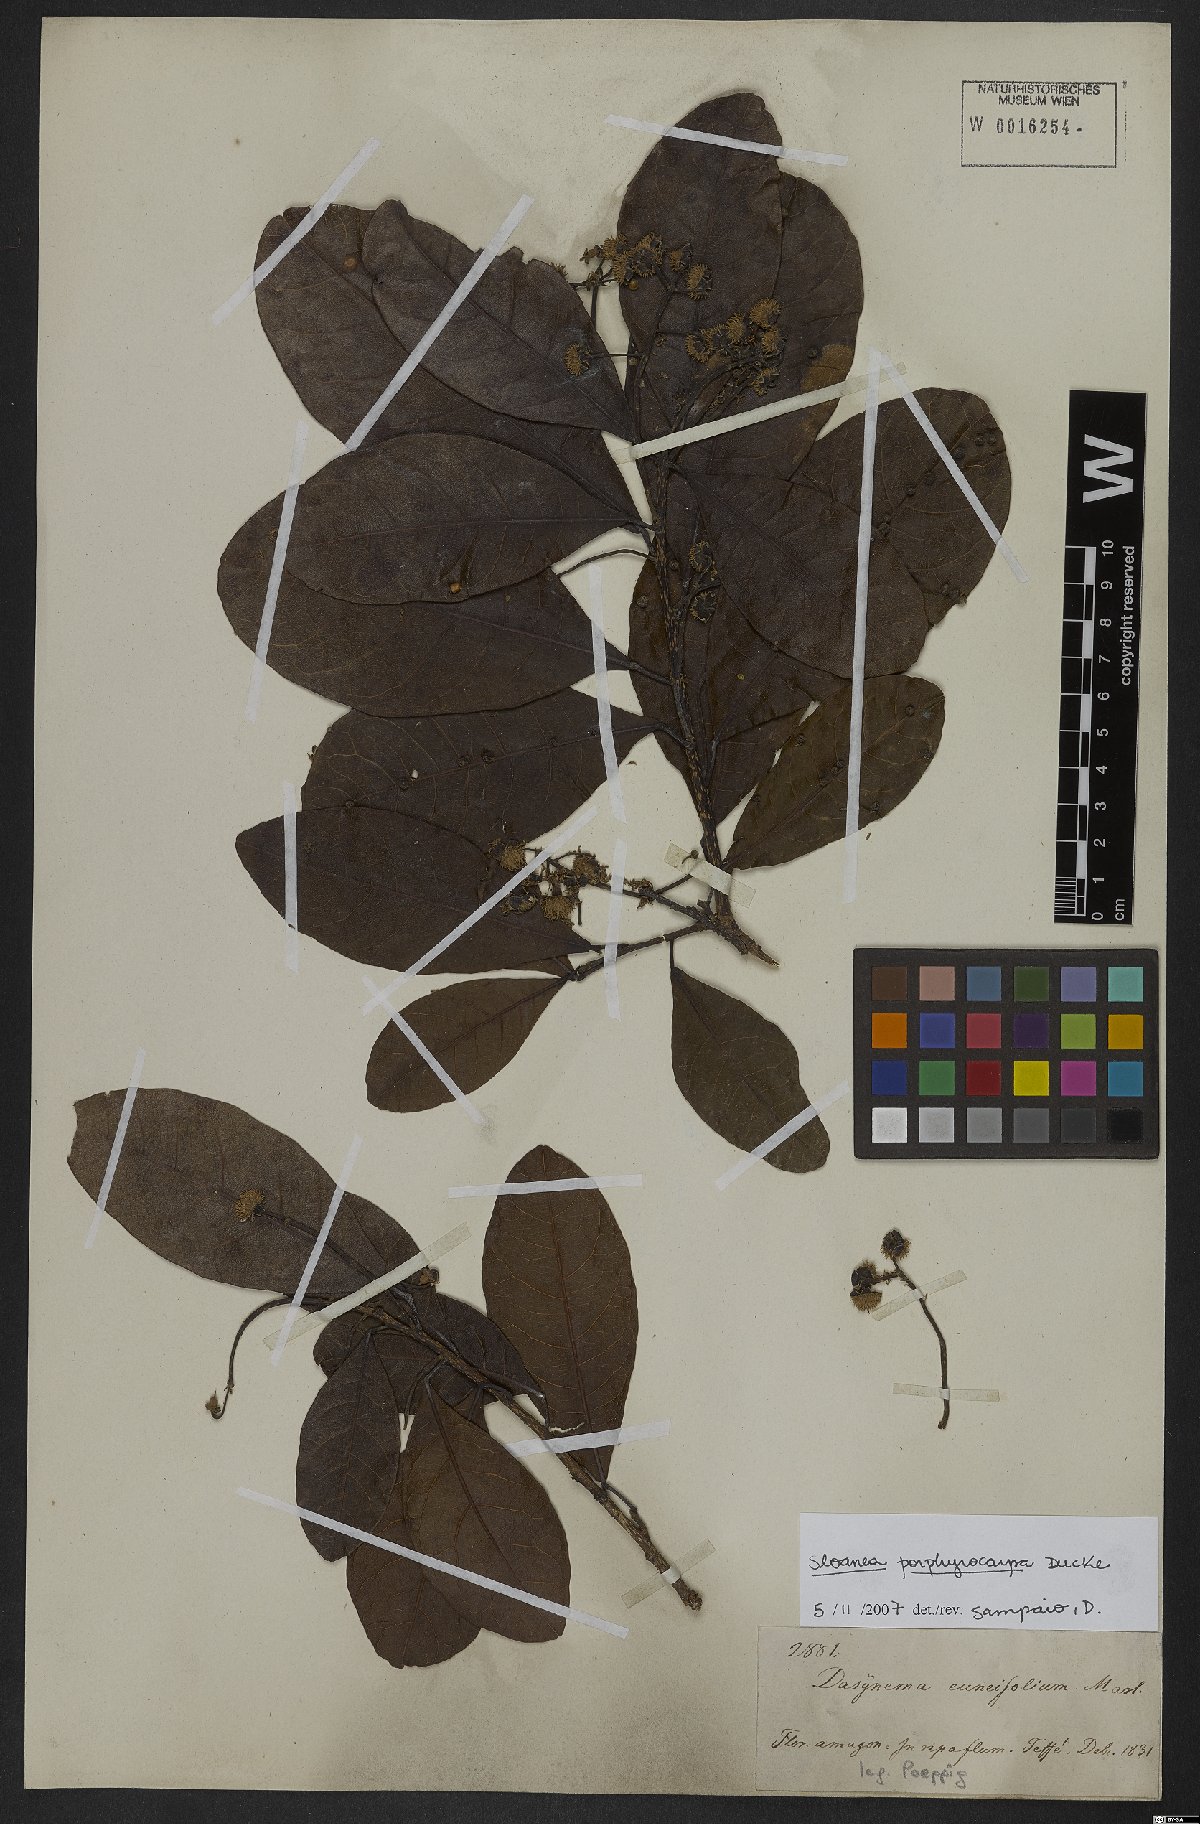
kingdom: Plantae
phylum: Tracheophyta
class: Magnoliopsida
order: Oxalidales
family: Elaeocarpaceae
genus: Sloanea
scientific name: Sloanea terniflora
